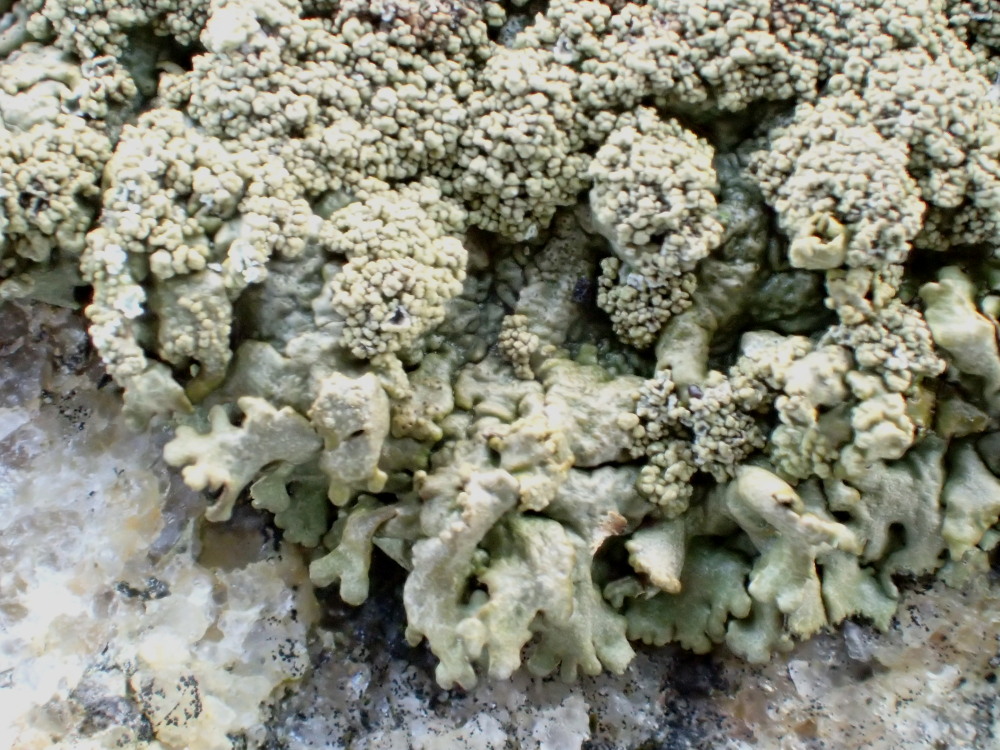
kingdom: Fungi
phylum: Ascomycota
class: Lecanoromycetes
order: Lecanorales
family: Parmeliaceae
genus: Xanthoparmelia
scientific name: Xanthoparmelia loxodes
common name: knudret skållav
